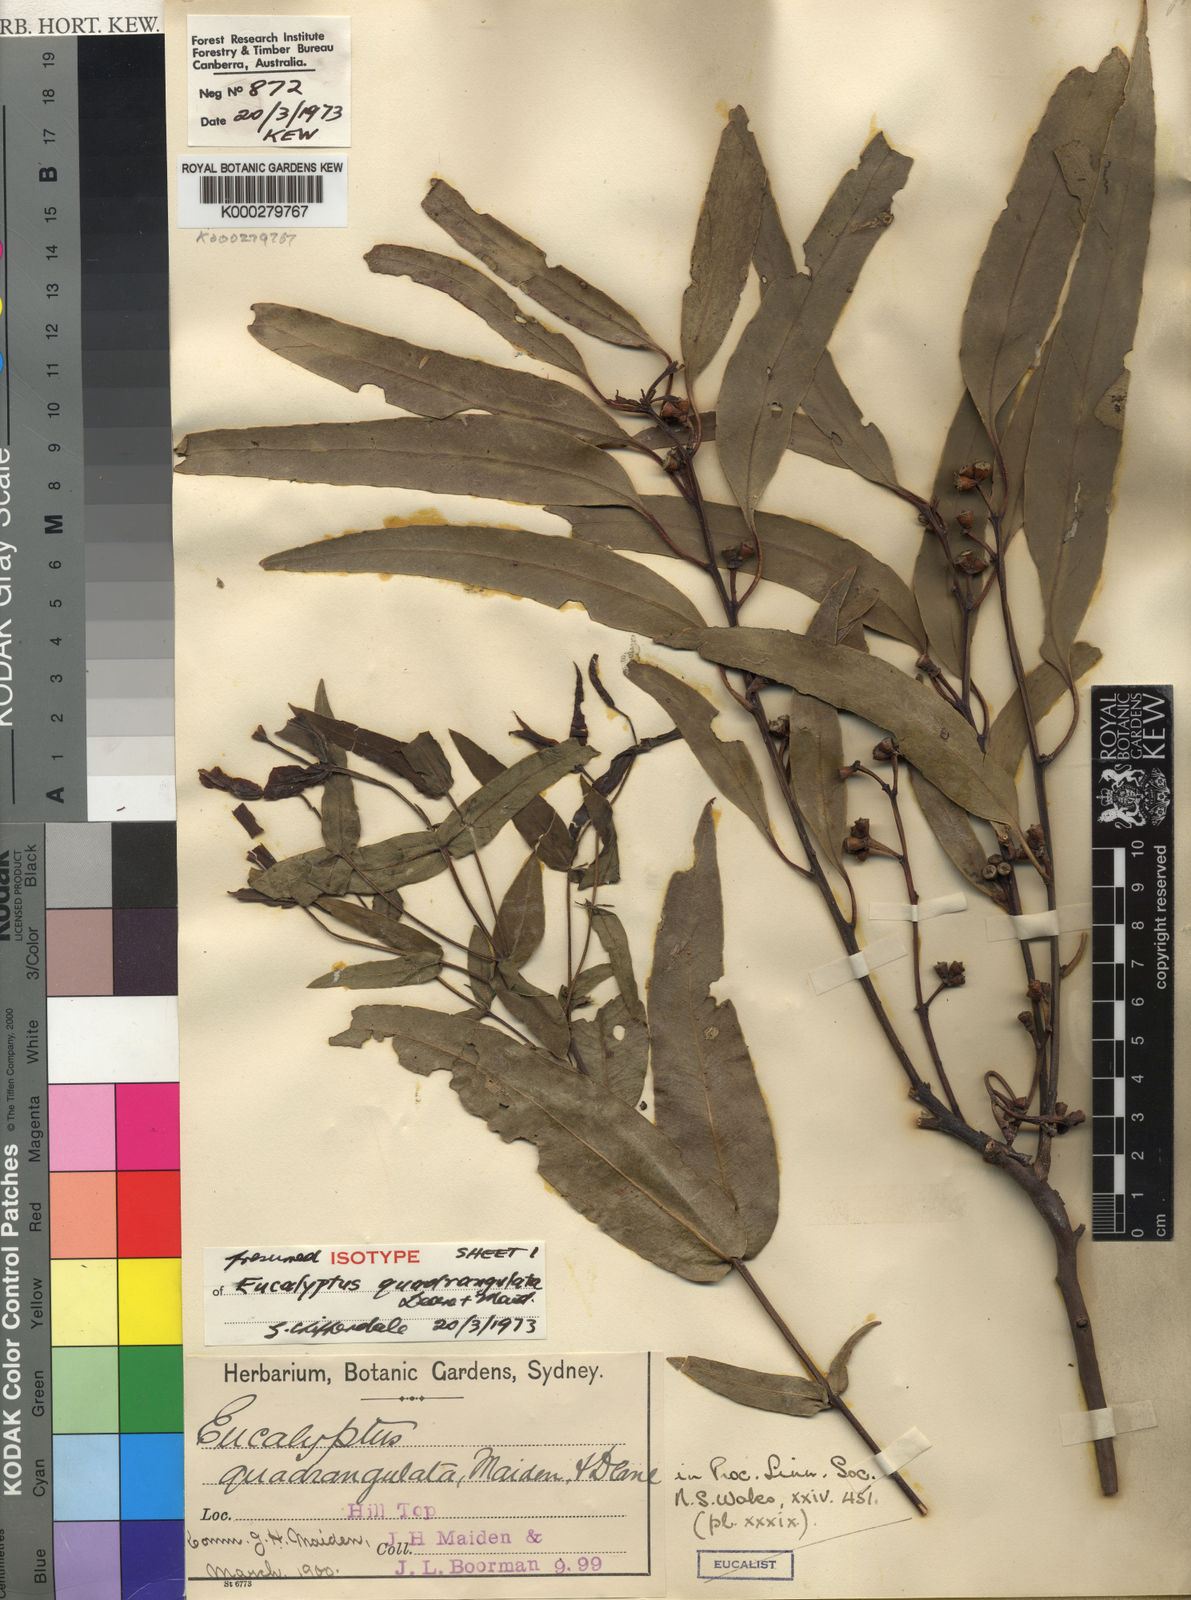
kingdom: Plantae
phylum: Tracheophyta
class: Magnoliopsida
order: Myrtales
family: Myrtaceae
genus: Eucalyptus
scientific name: Eucalyptus quadrangulata
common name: Coastal box
